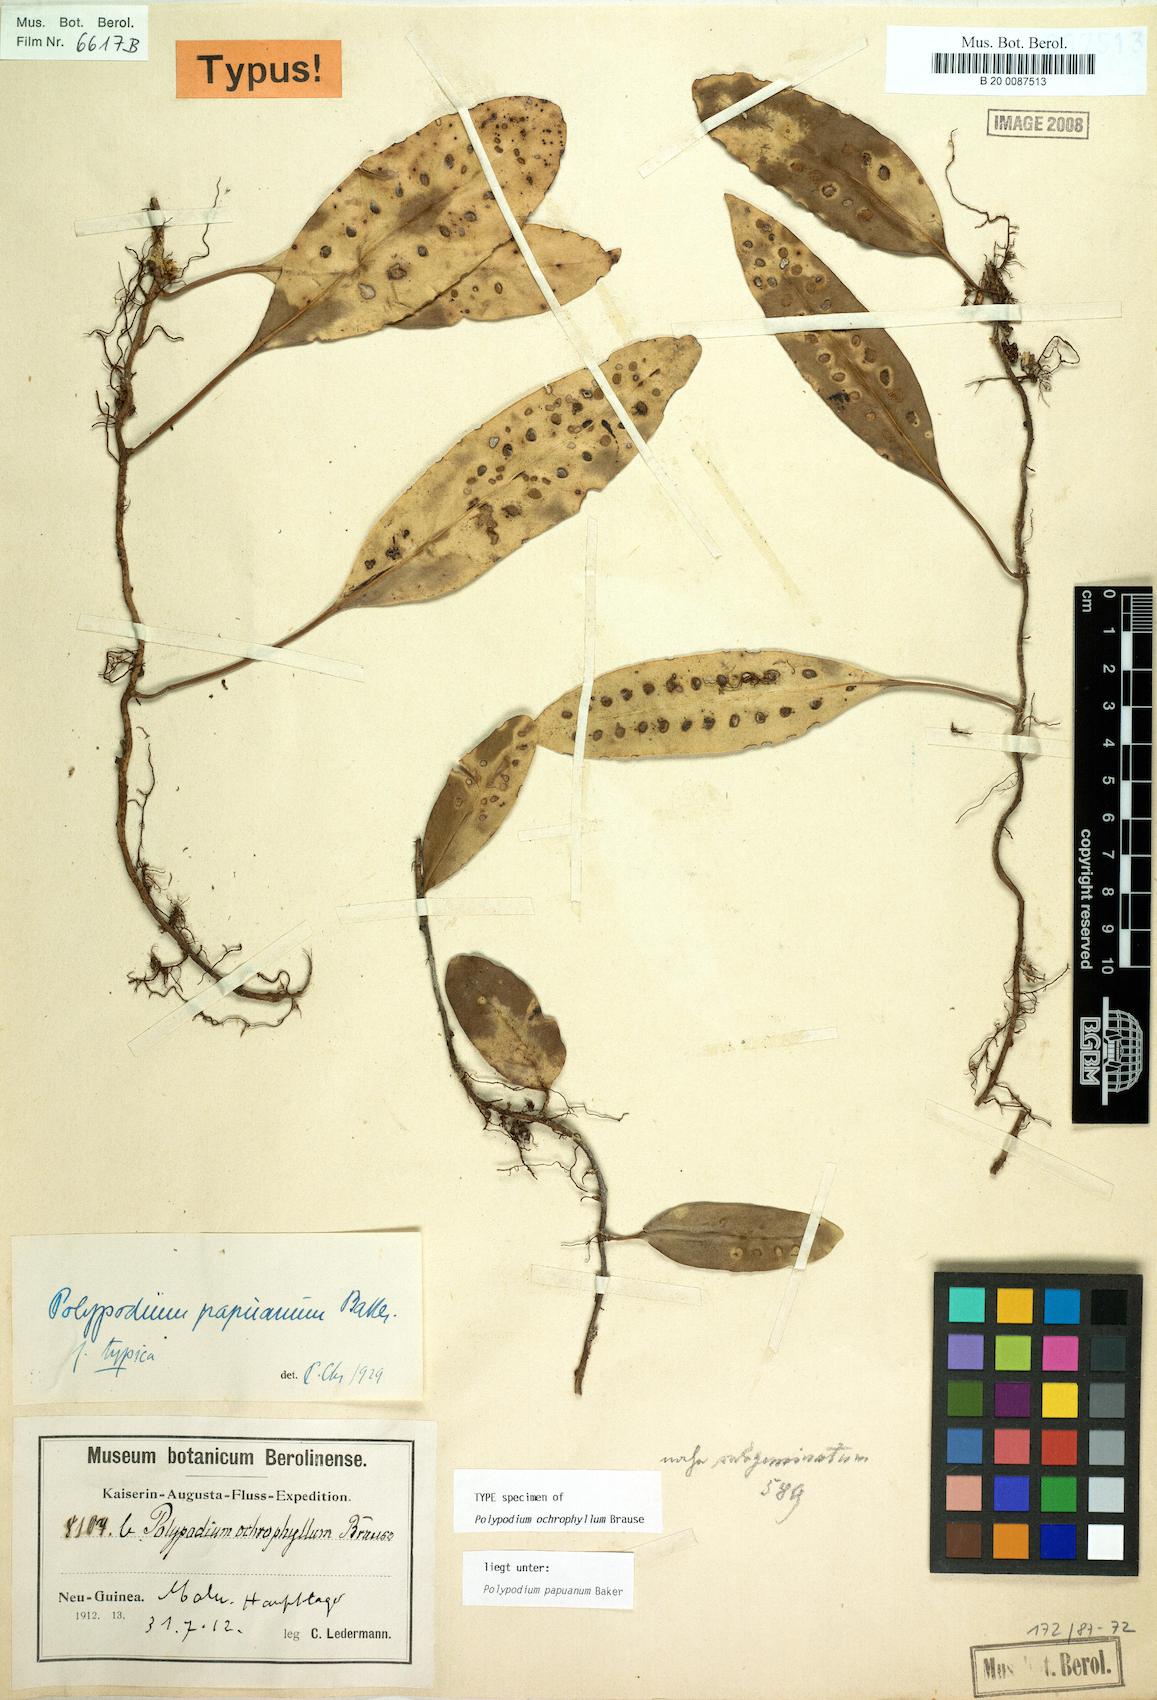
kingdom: Plantae
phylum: Tracheophyta
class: Polypodiopsida
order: Polypodiales
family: Polypodiaceae
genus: Microsorum
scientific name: Microsorum papuanum
